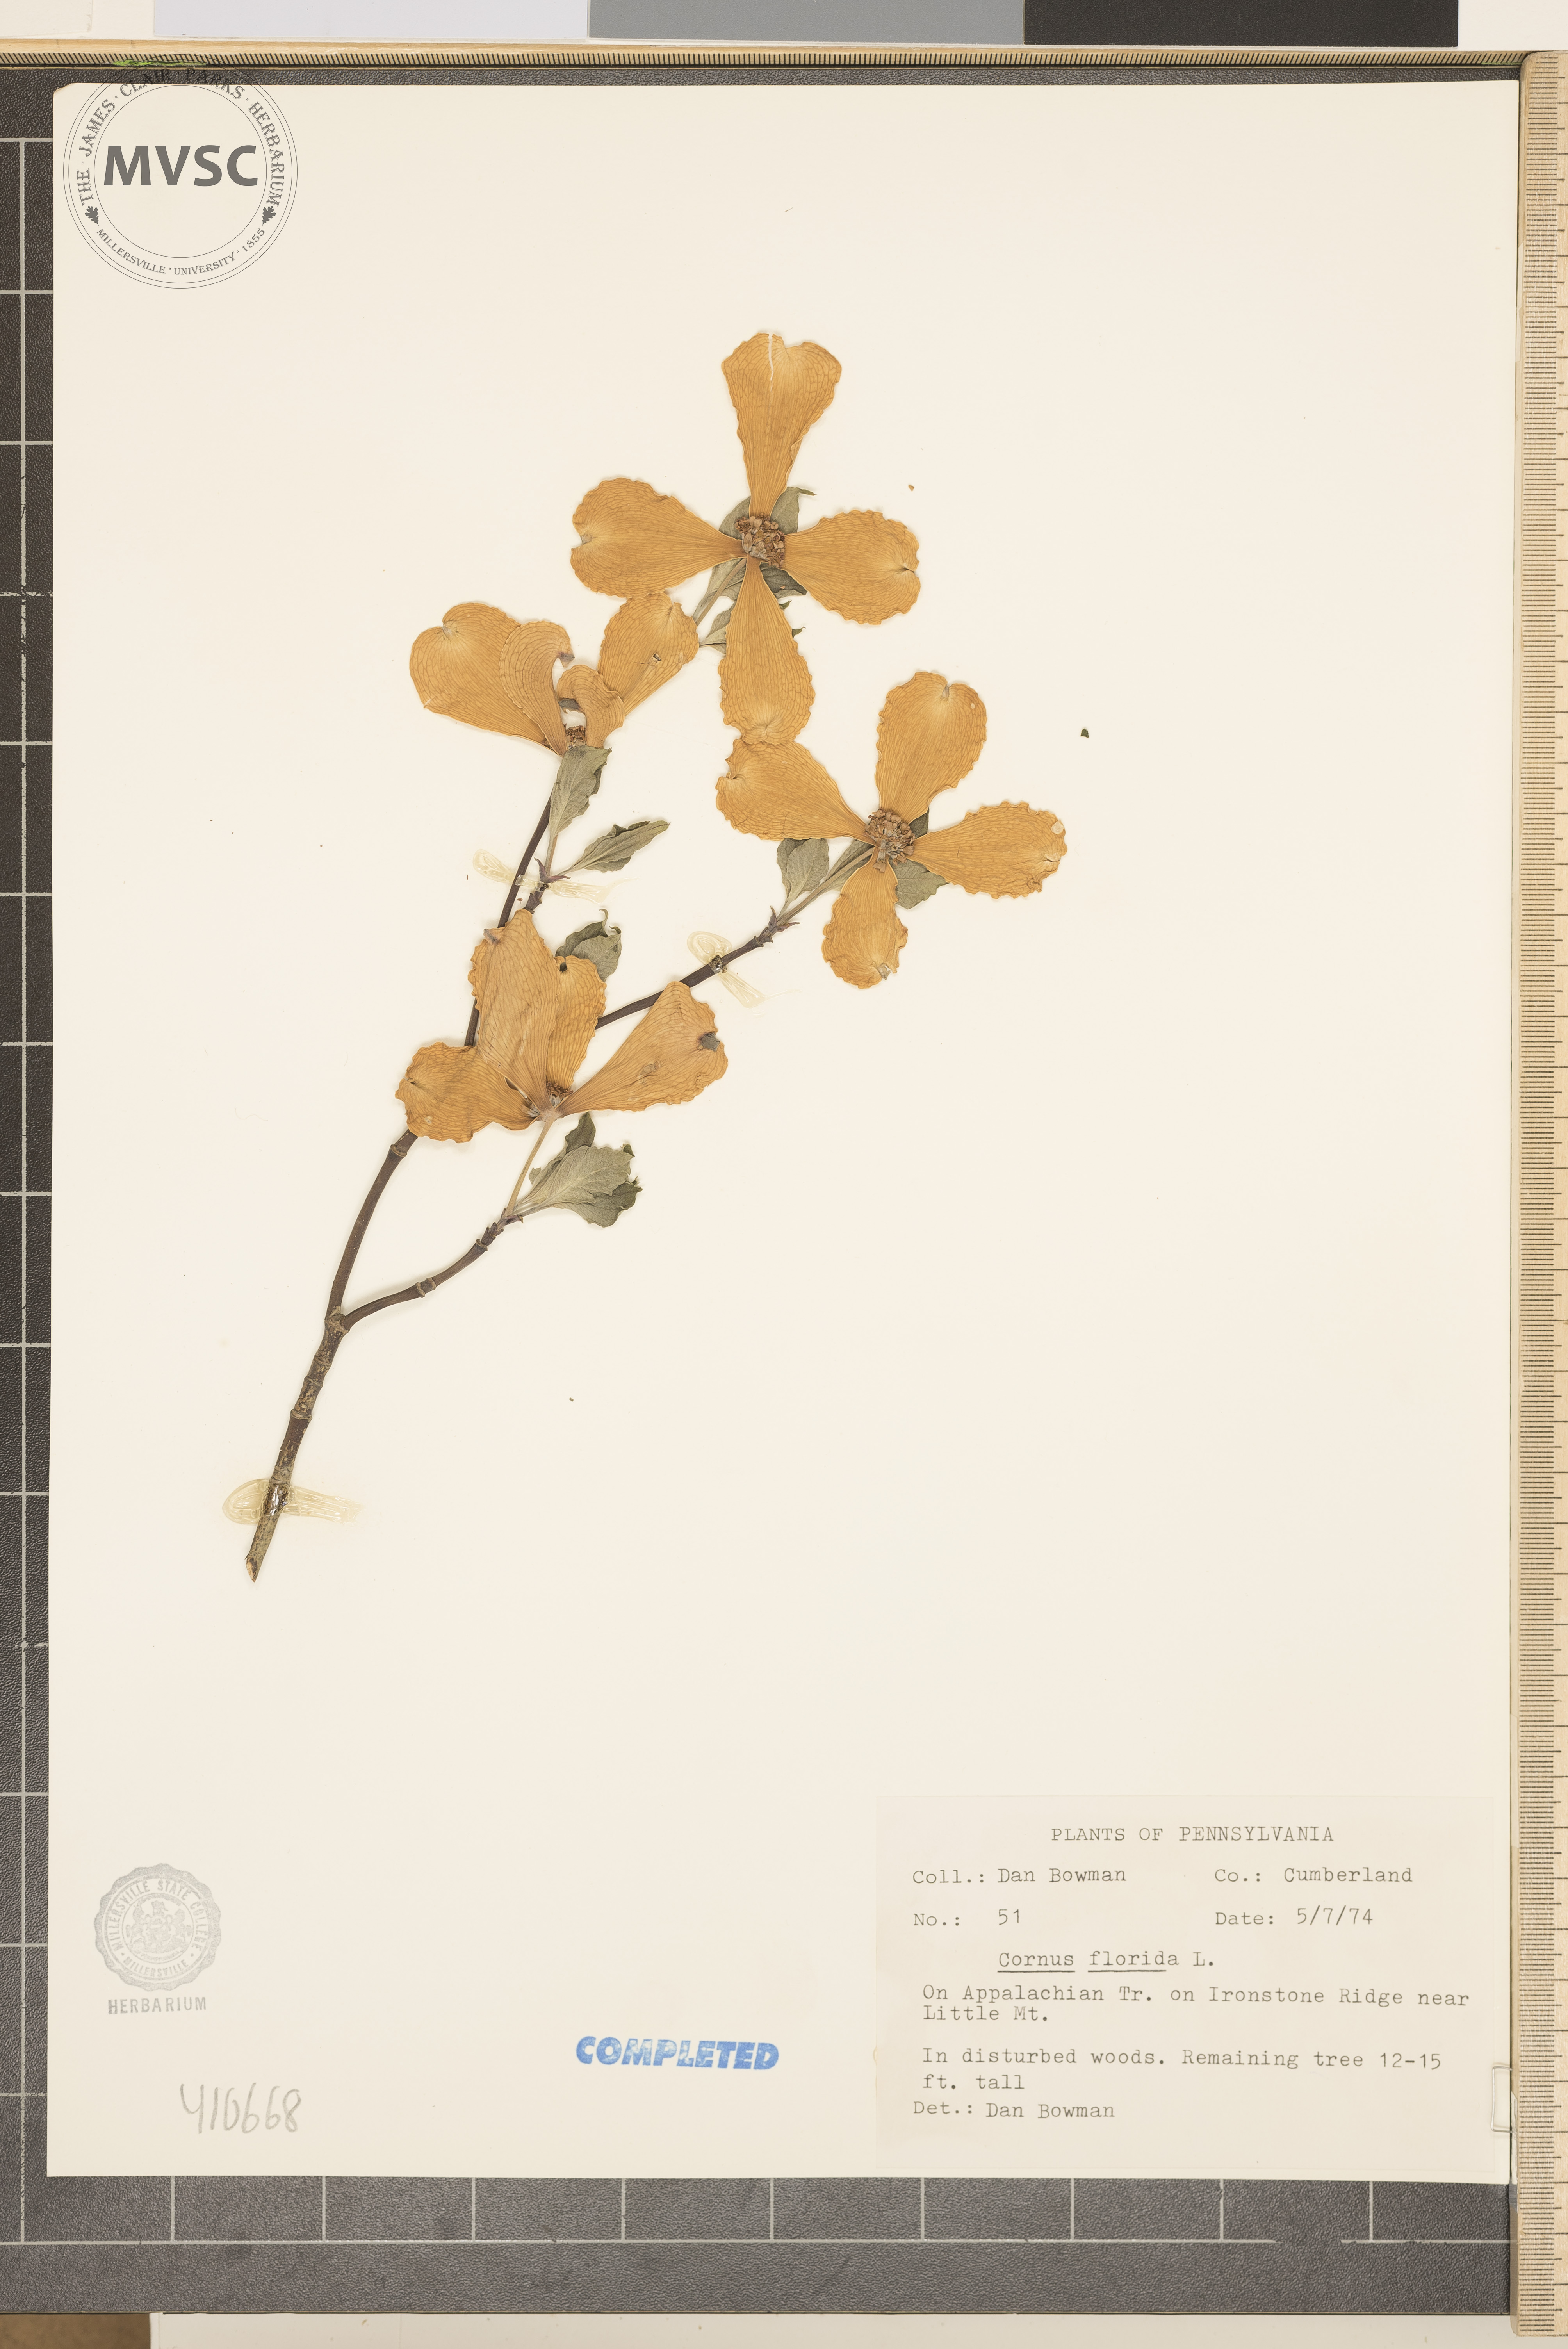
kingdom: Plantae
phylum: Tracheophyta
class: Magnoliopsida
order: Cornales
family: Cornaceae
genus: Cornus
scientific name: Cornus florida
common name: Flowering dogwood
